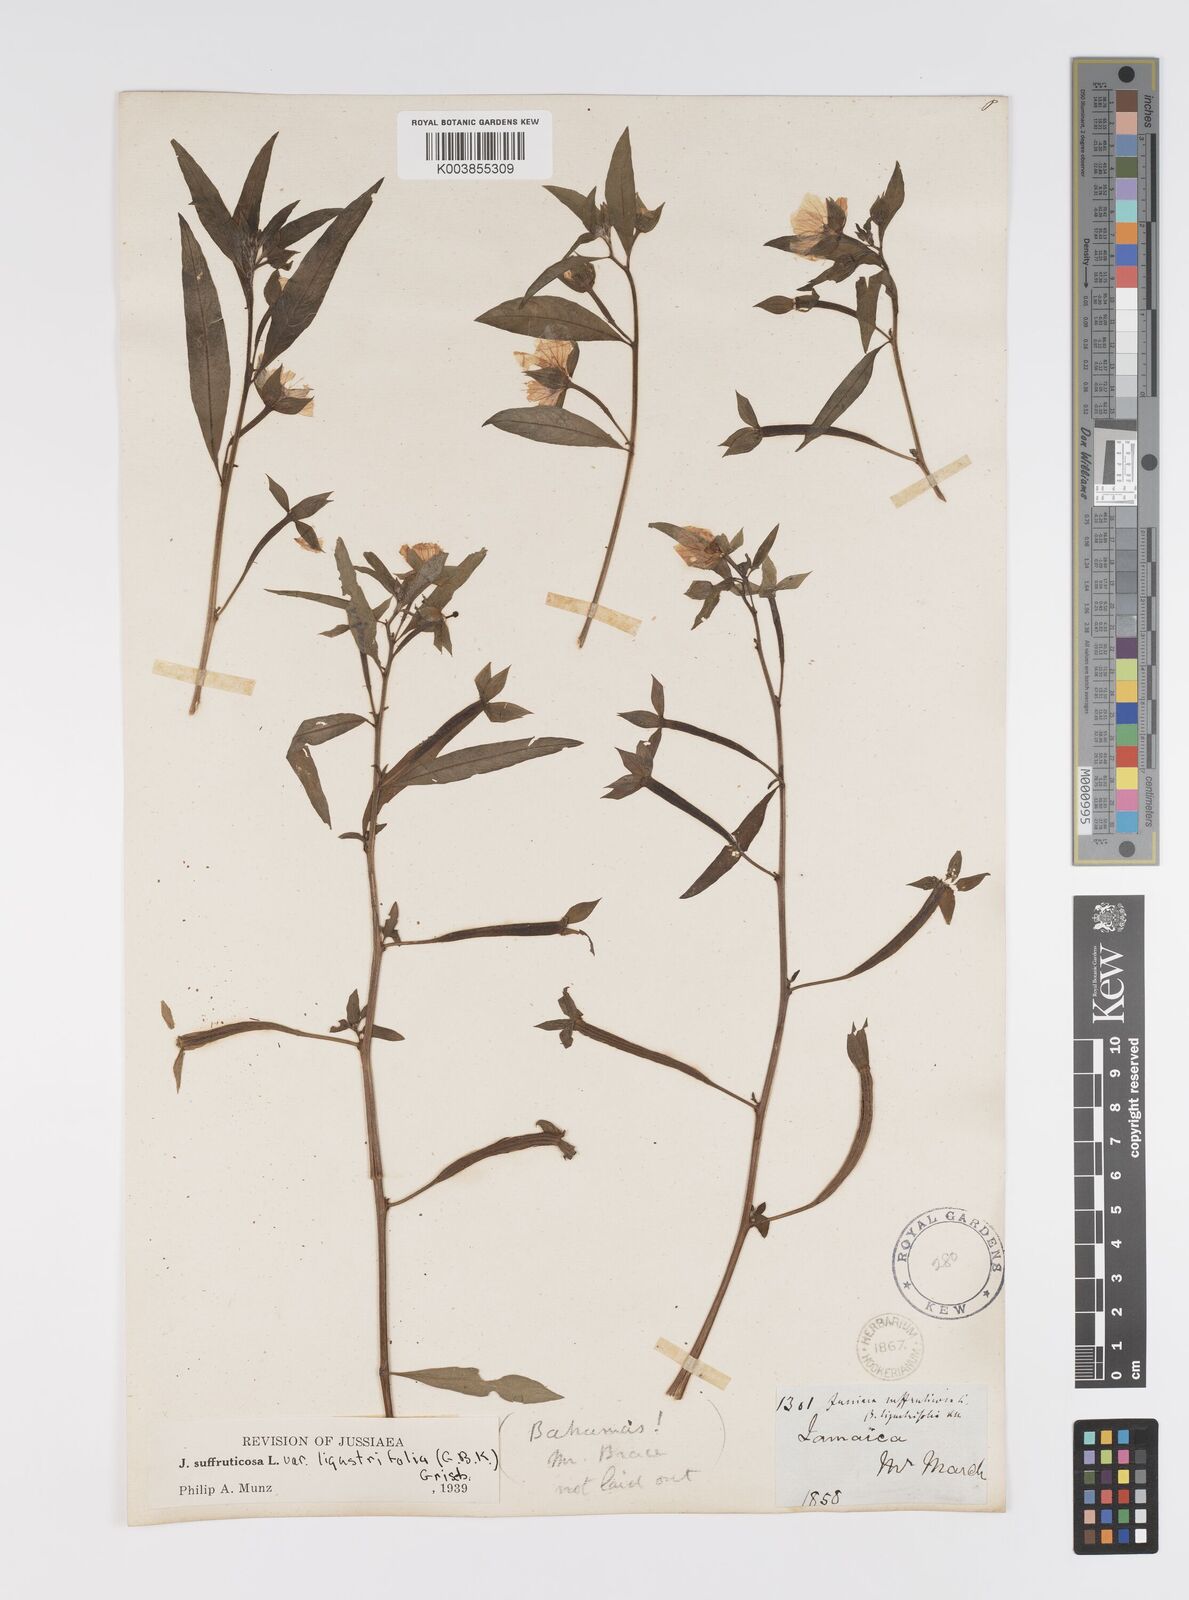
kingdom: Plantae
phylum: Tracheophyta
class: Magnoliopsida
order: Myrtales
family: Onagraceae
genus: Ludwigia
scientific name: Ludwigia
